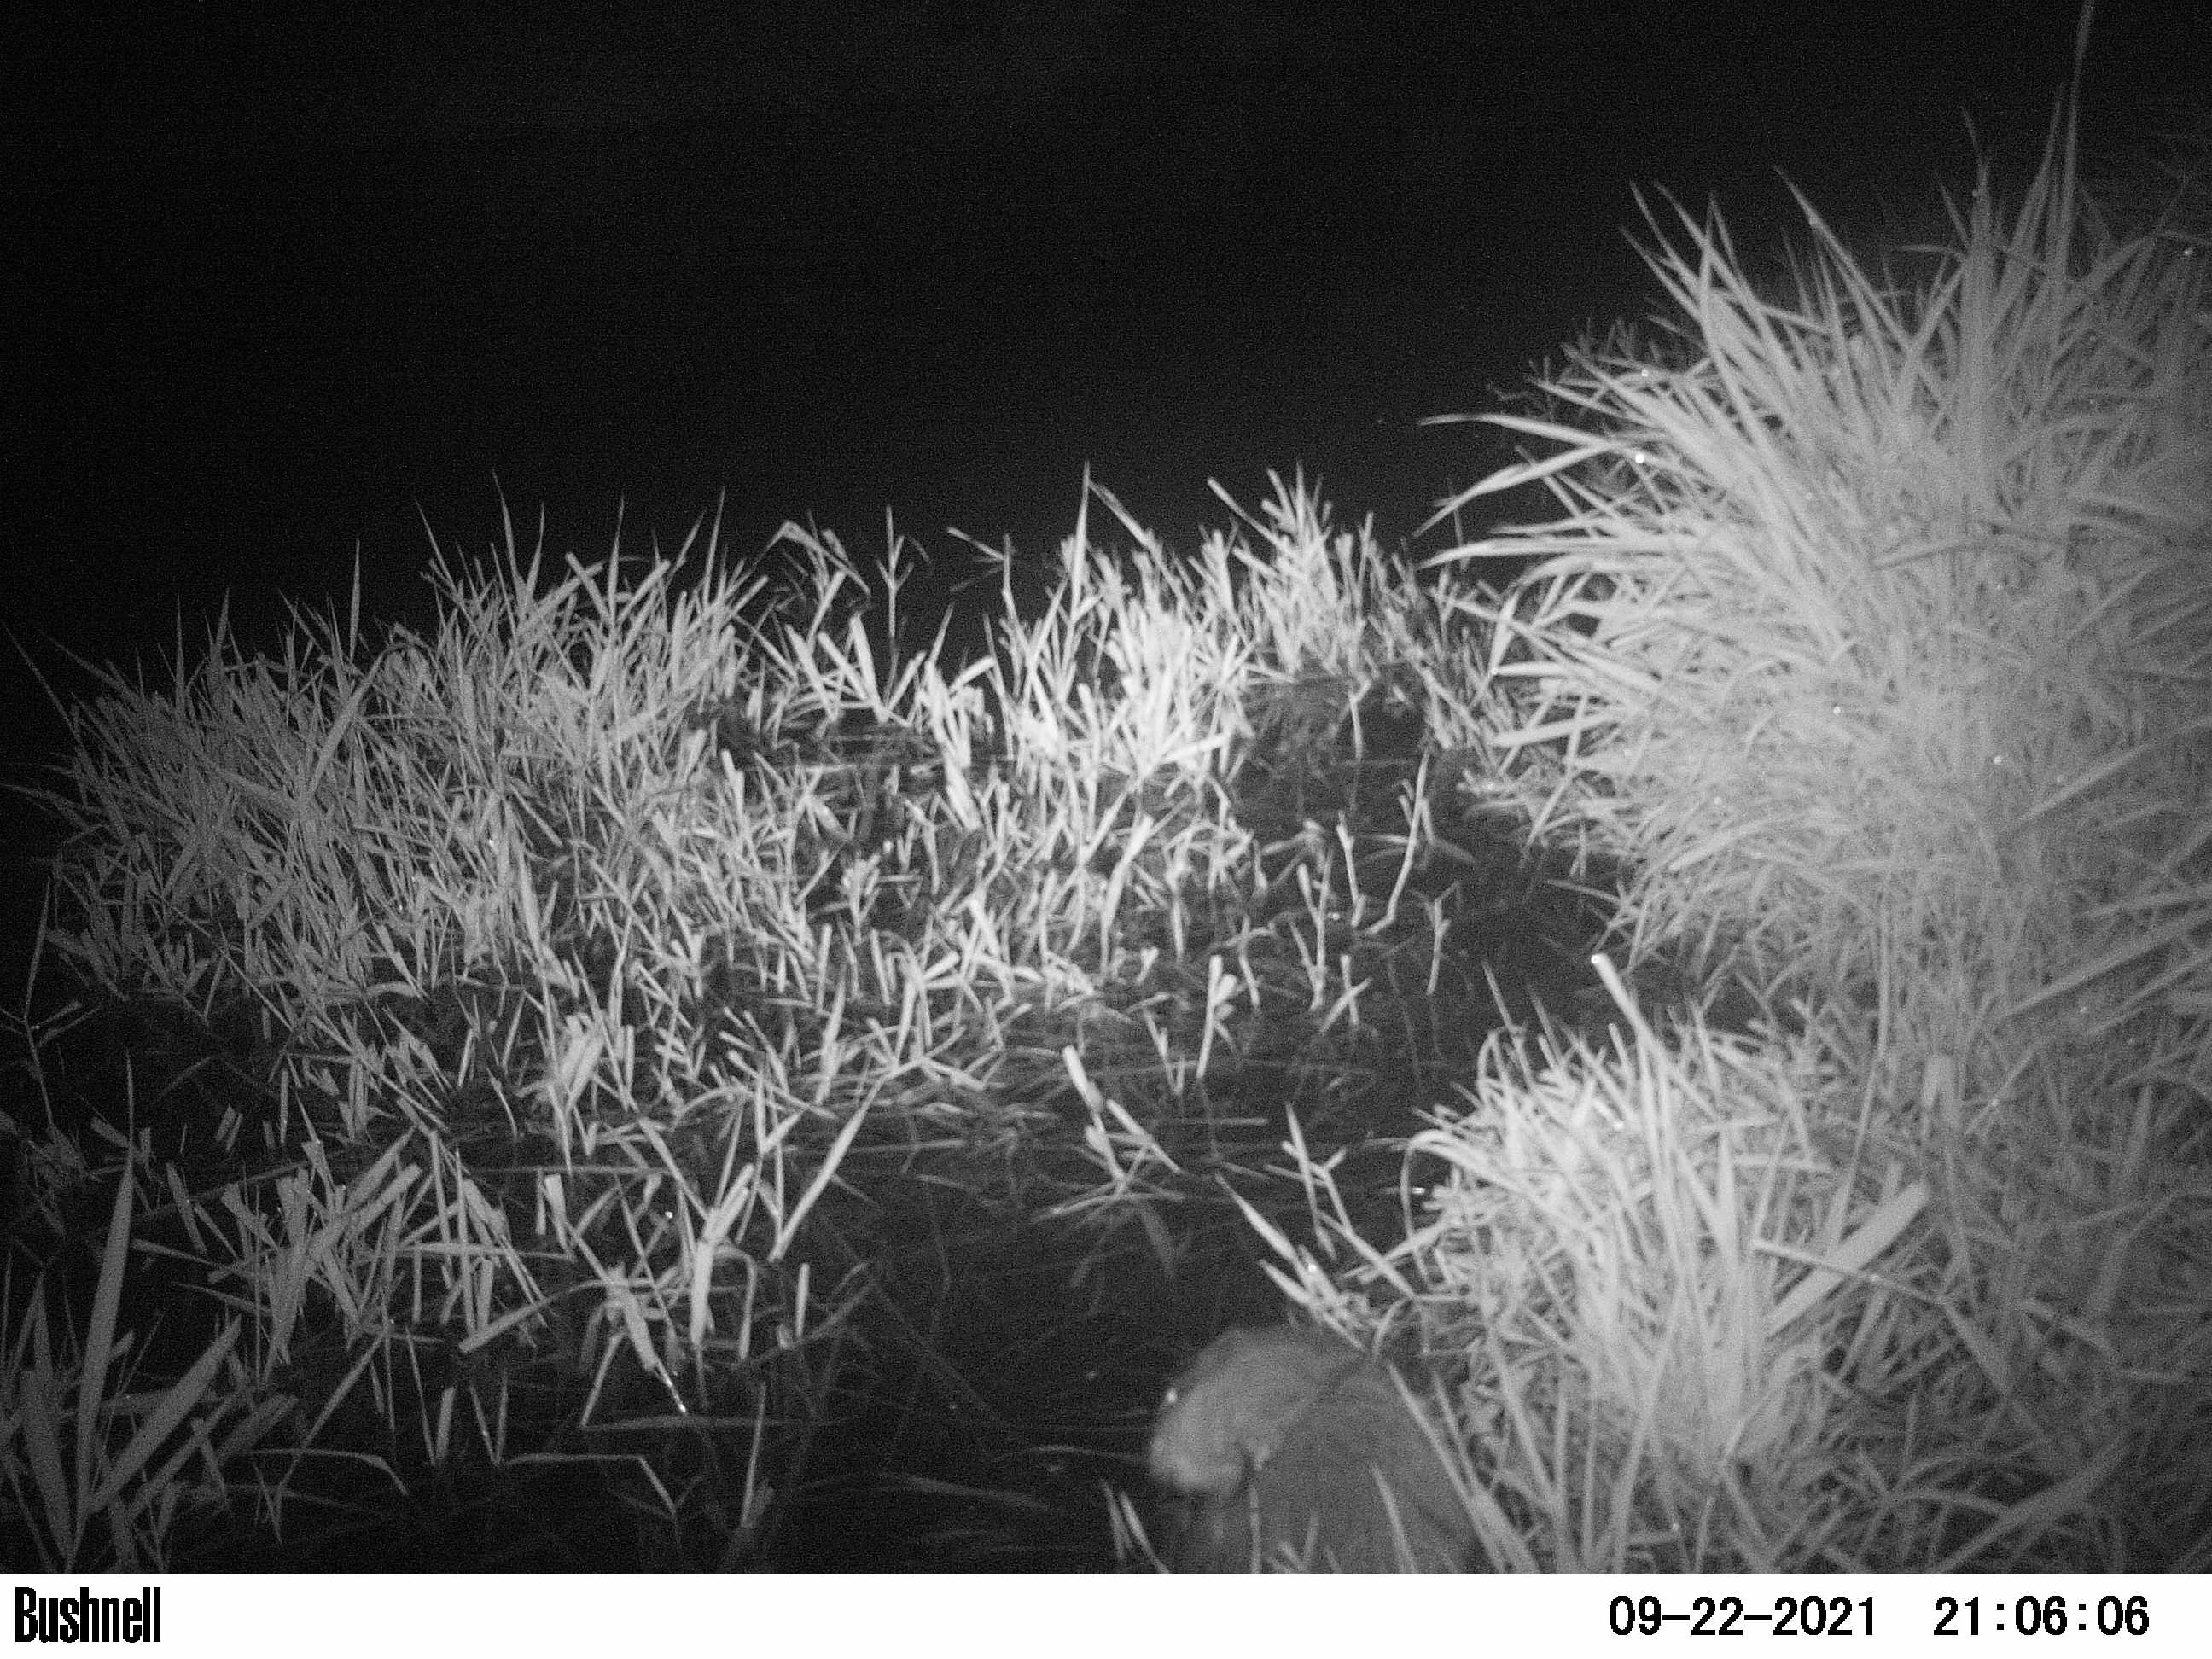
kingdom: Animalia
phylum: Chordata
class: Mammalia
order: Rodentia
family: Cricetidae
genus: Ondatra
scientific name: Ondatra zibethicus
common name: Muskrat
